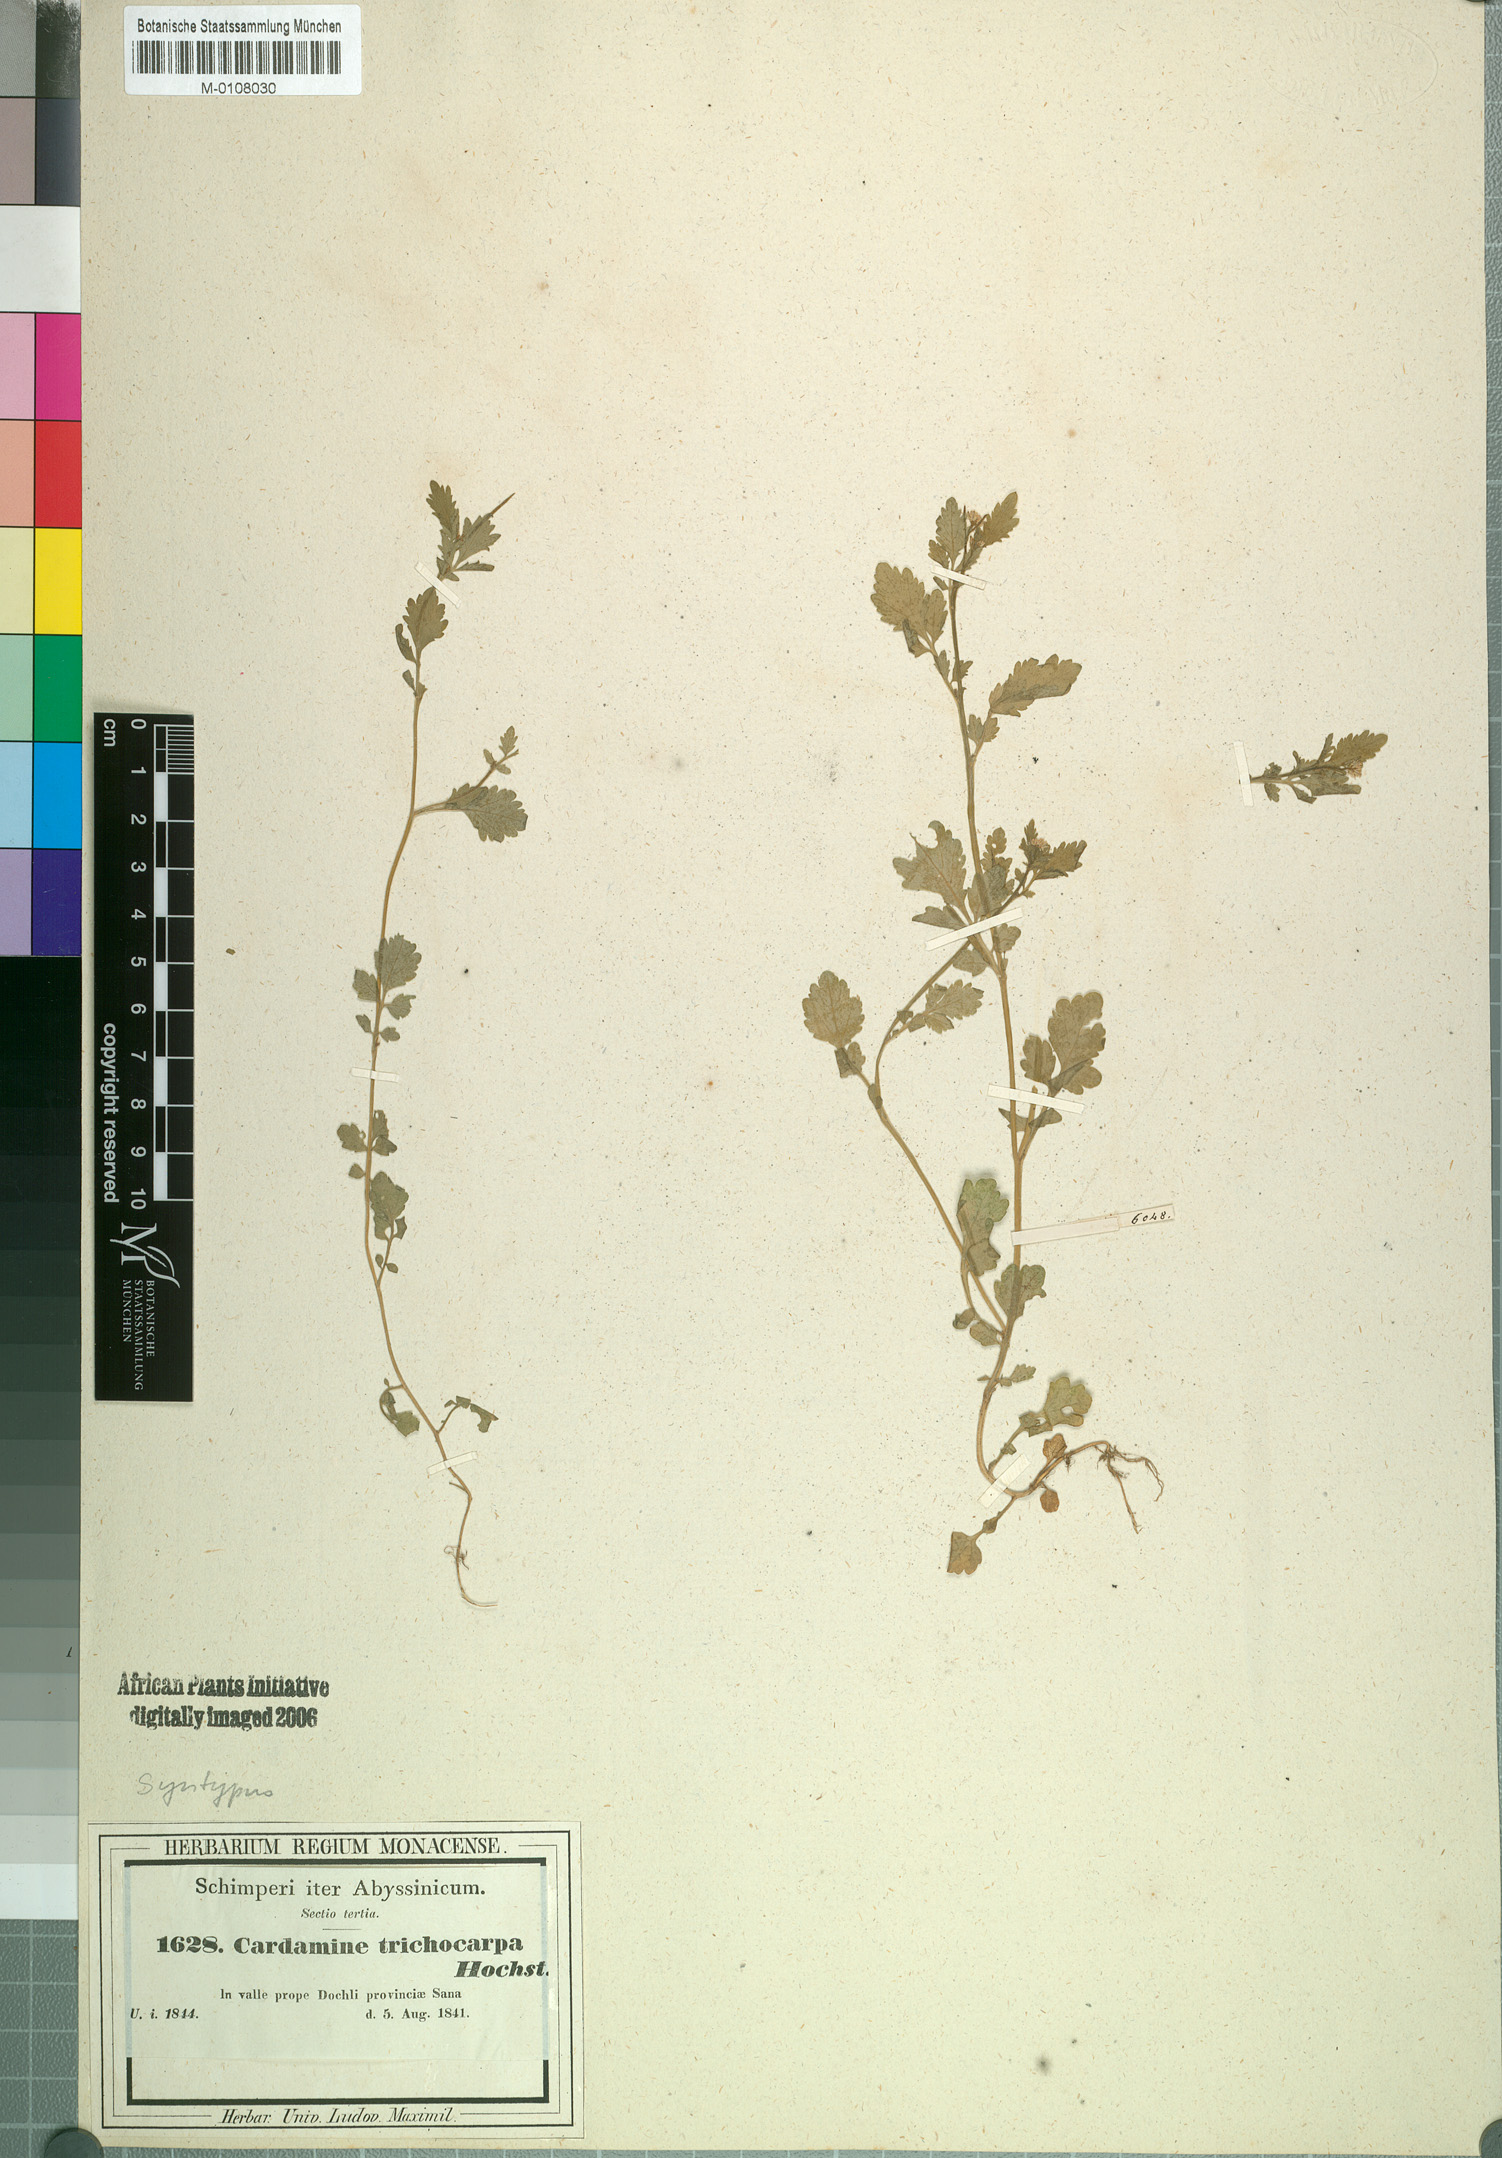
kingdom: Plantae
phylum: Tracheophyta
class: Magnoliopsida
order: Brassicales
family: Brassicaceae
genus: Cardamine
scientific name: Cardamine trichocarpa
